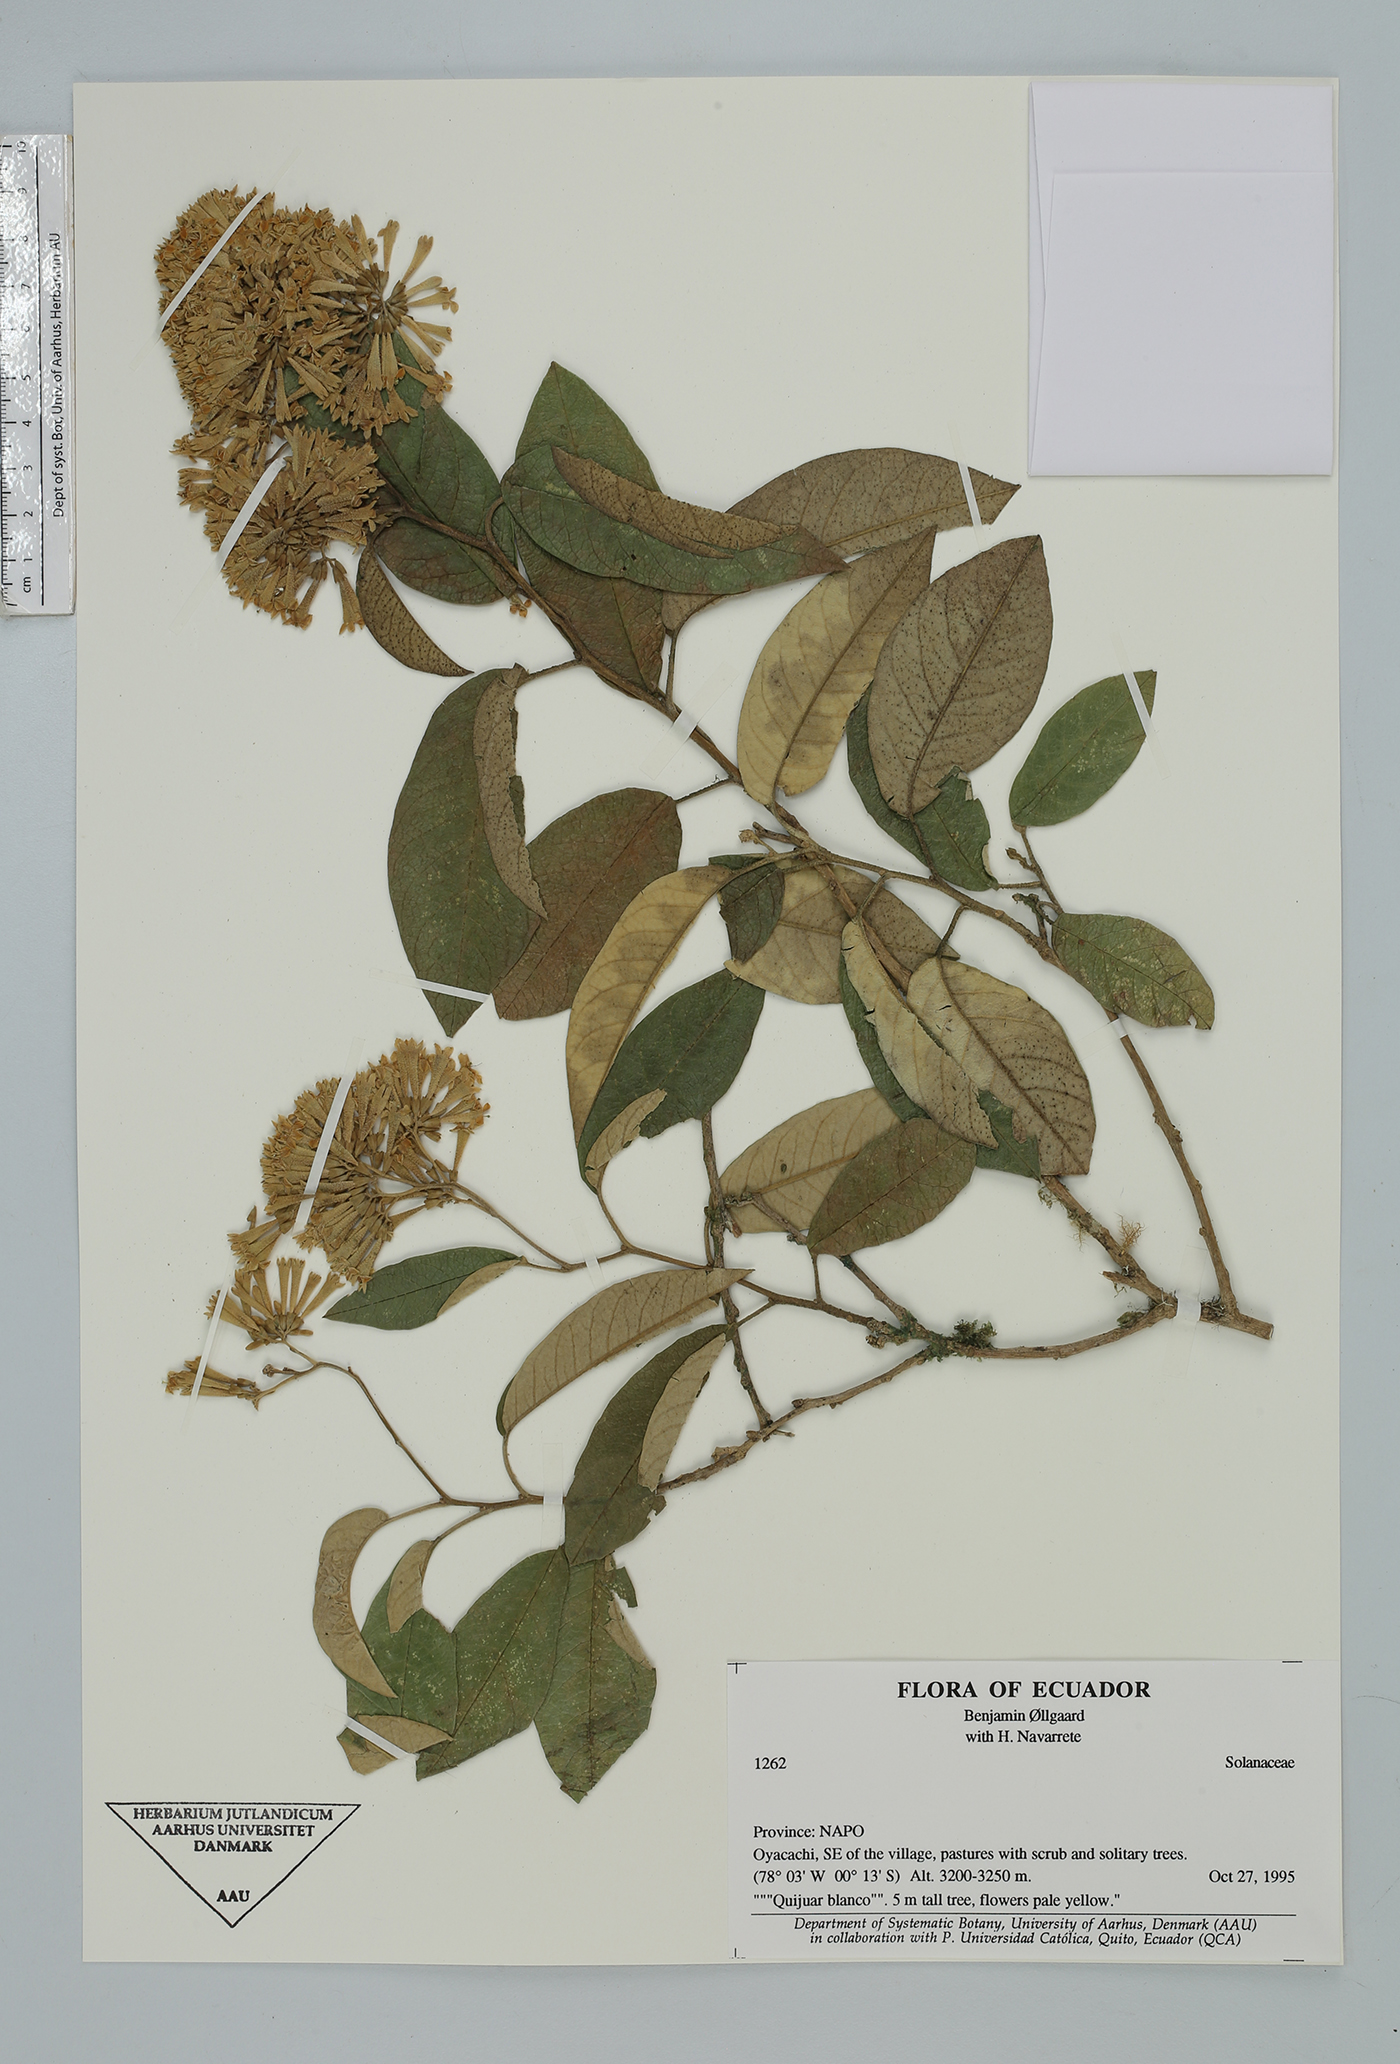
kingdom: Plantae
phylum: Tracheophyta
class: Magnoliopsida
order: Solanales
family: Solanaceae
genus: Sessea
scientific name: Sessea
